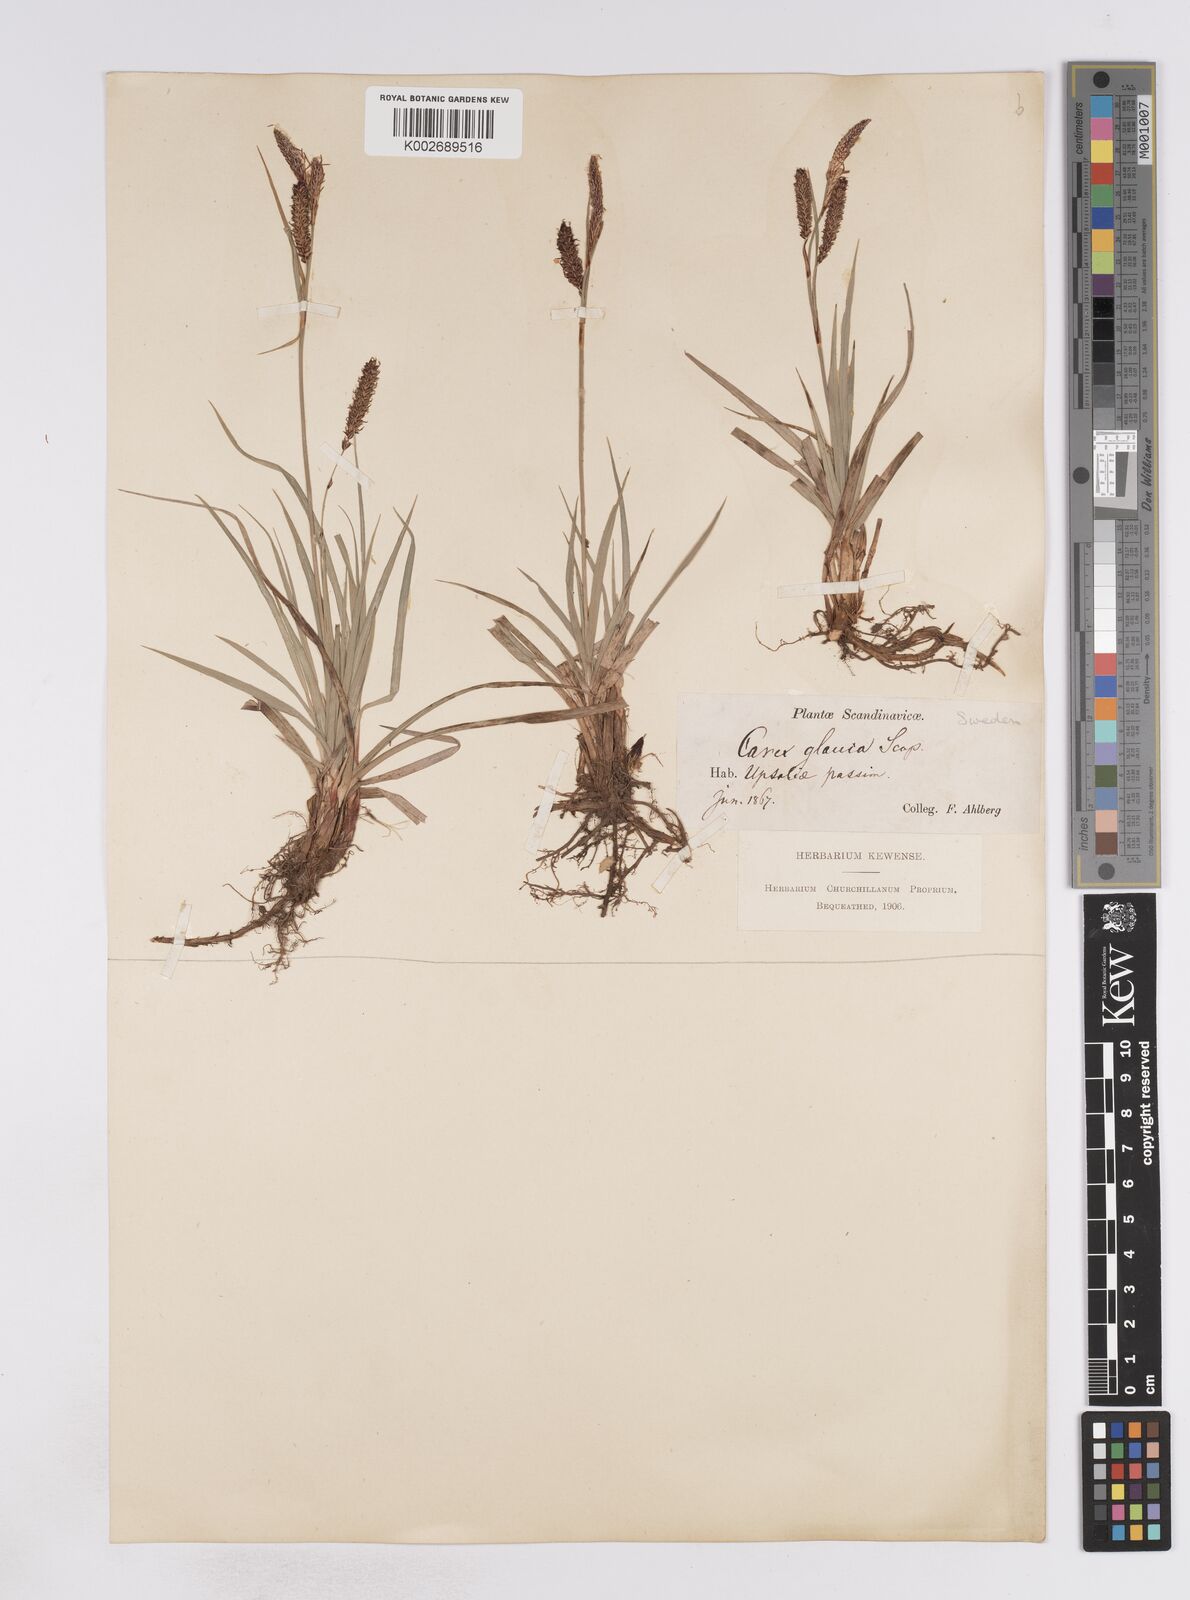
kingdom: Plantae
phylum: Tracheophyta
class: Liliopsida
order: Poales
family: Cyperaceae
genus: Carex
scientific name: Carex flacca
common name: Glaucous sedge
